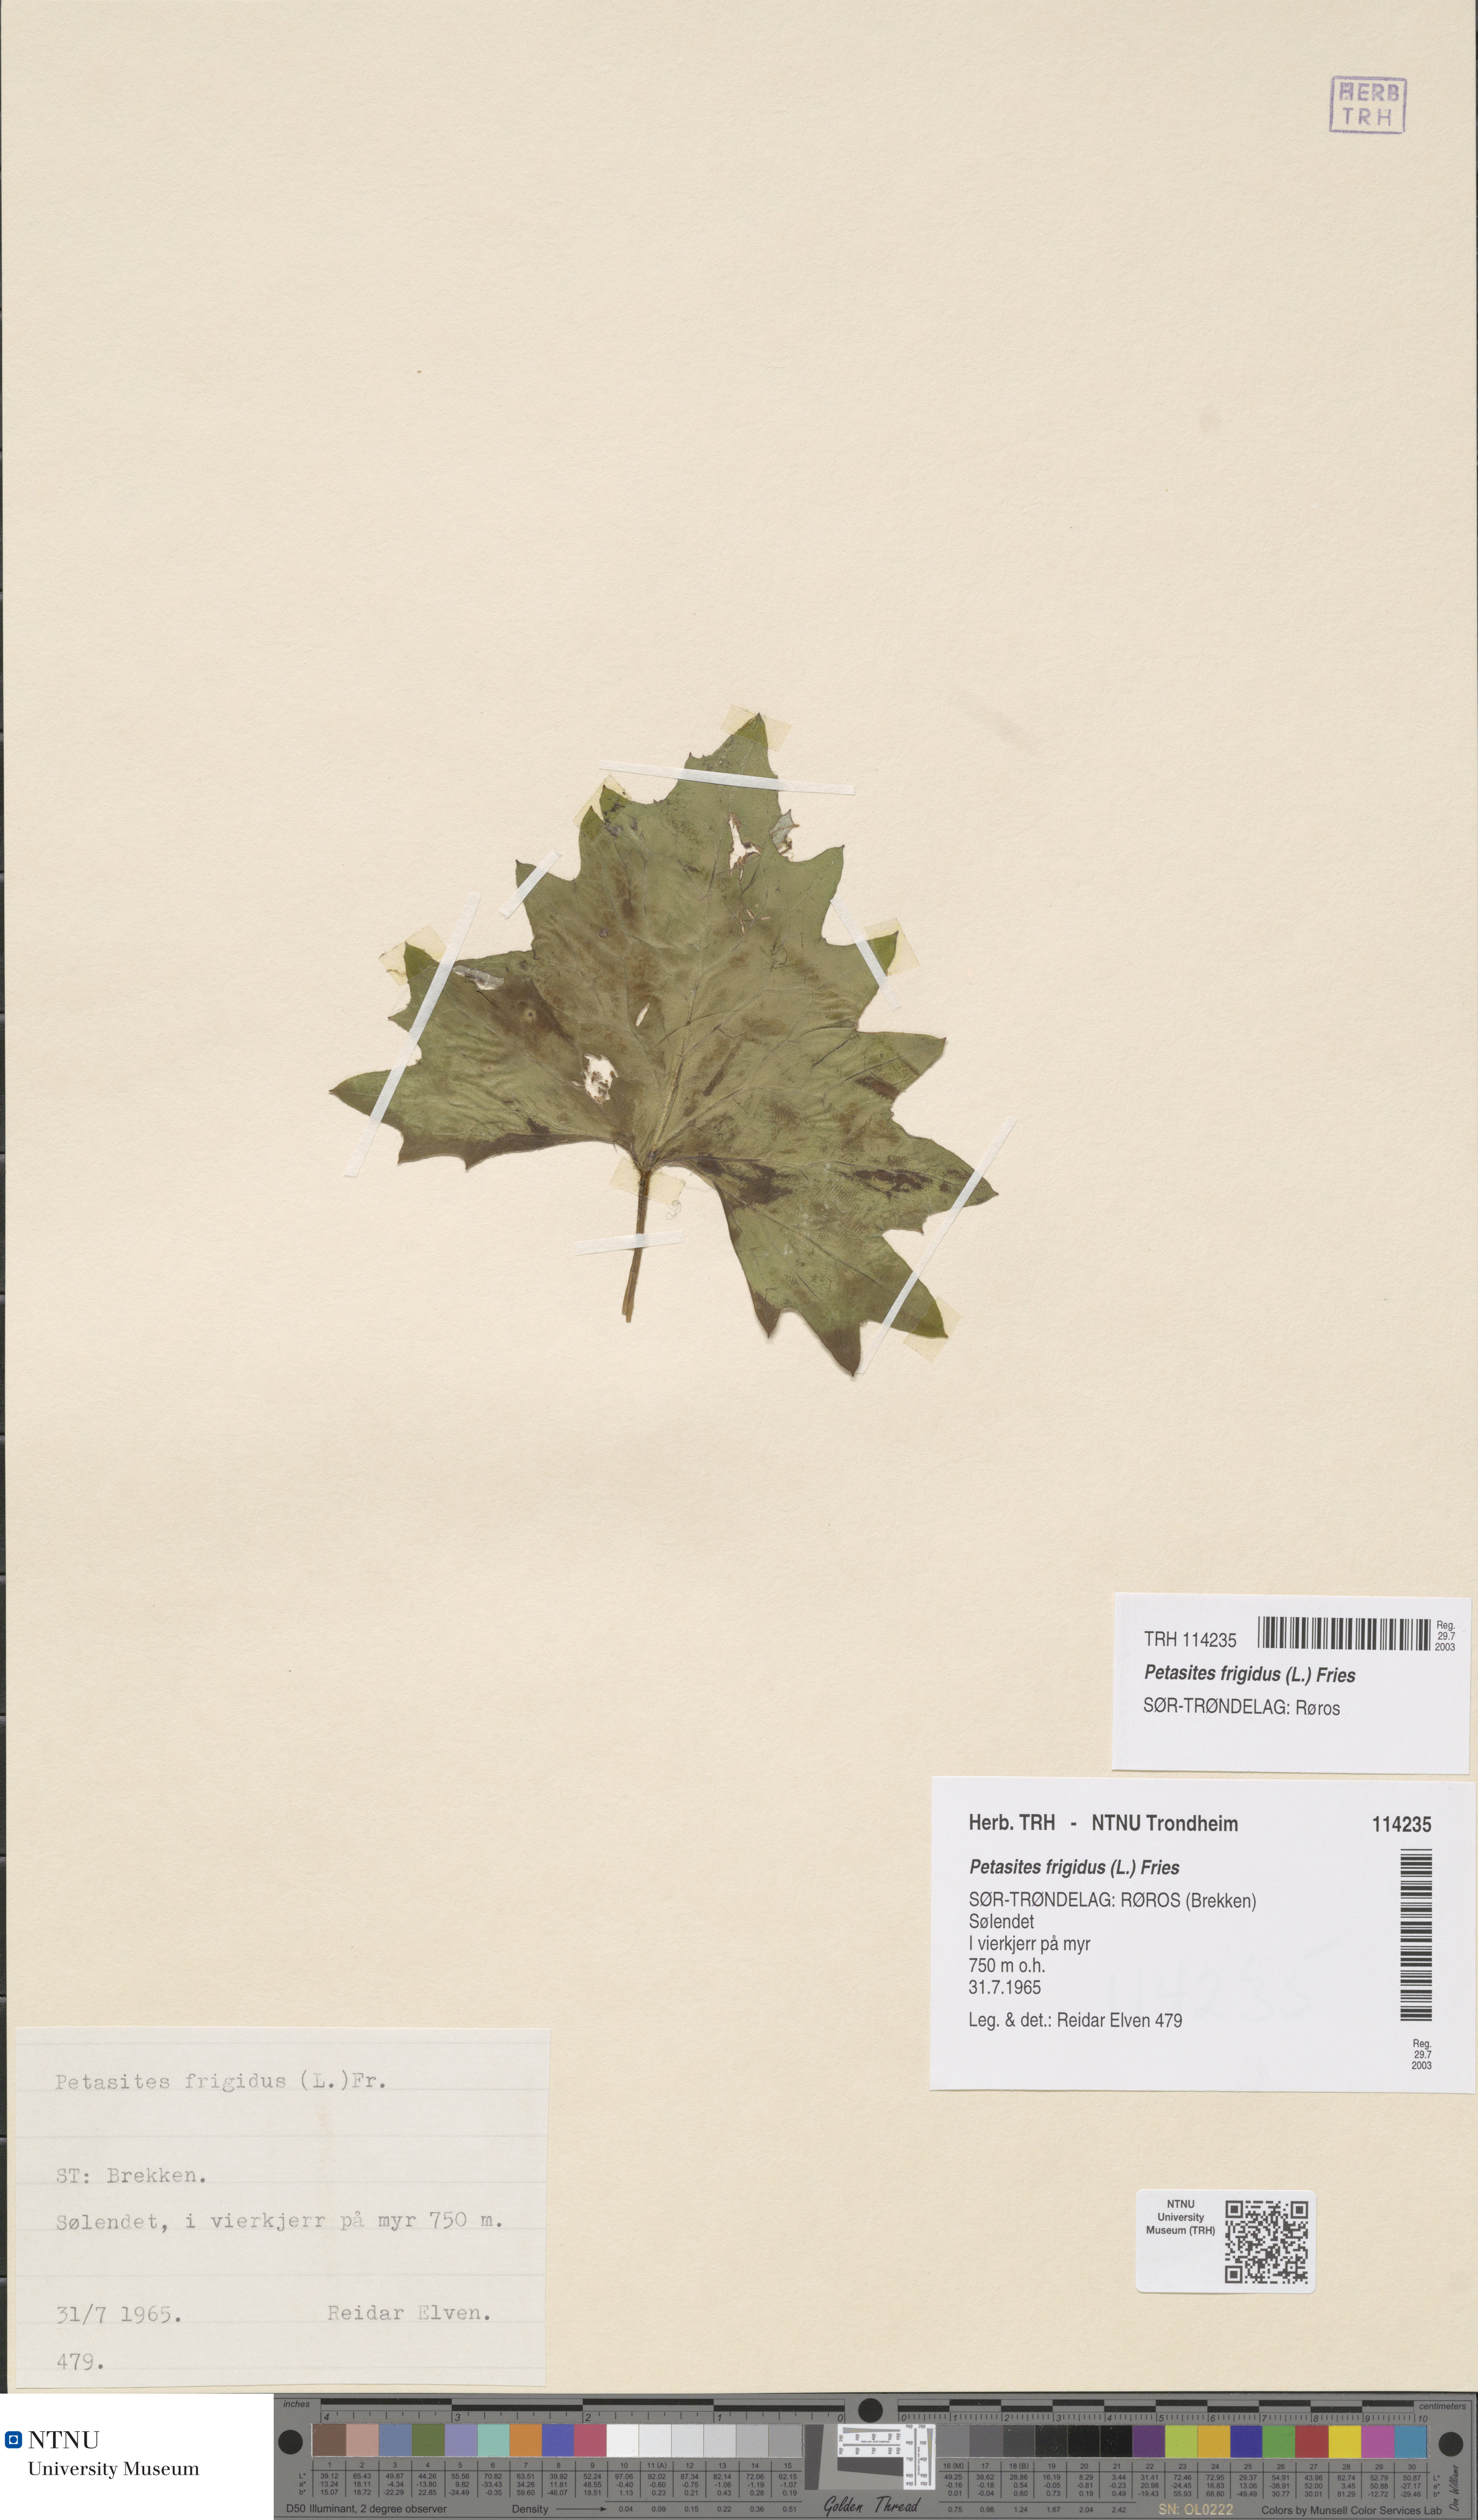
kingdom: Plantae
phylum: Tracheophyta
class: Magnoliopsida
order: Asterales
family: Asteraceae
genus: Petasites
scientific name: Petasites frigidus
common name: Arctic butterbur
